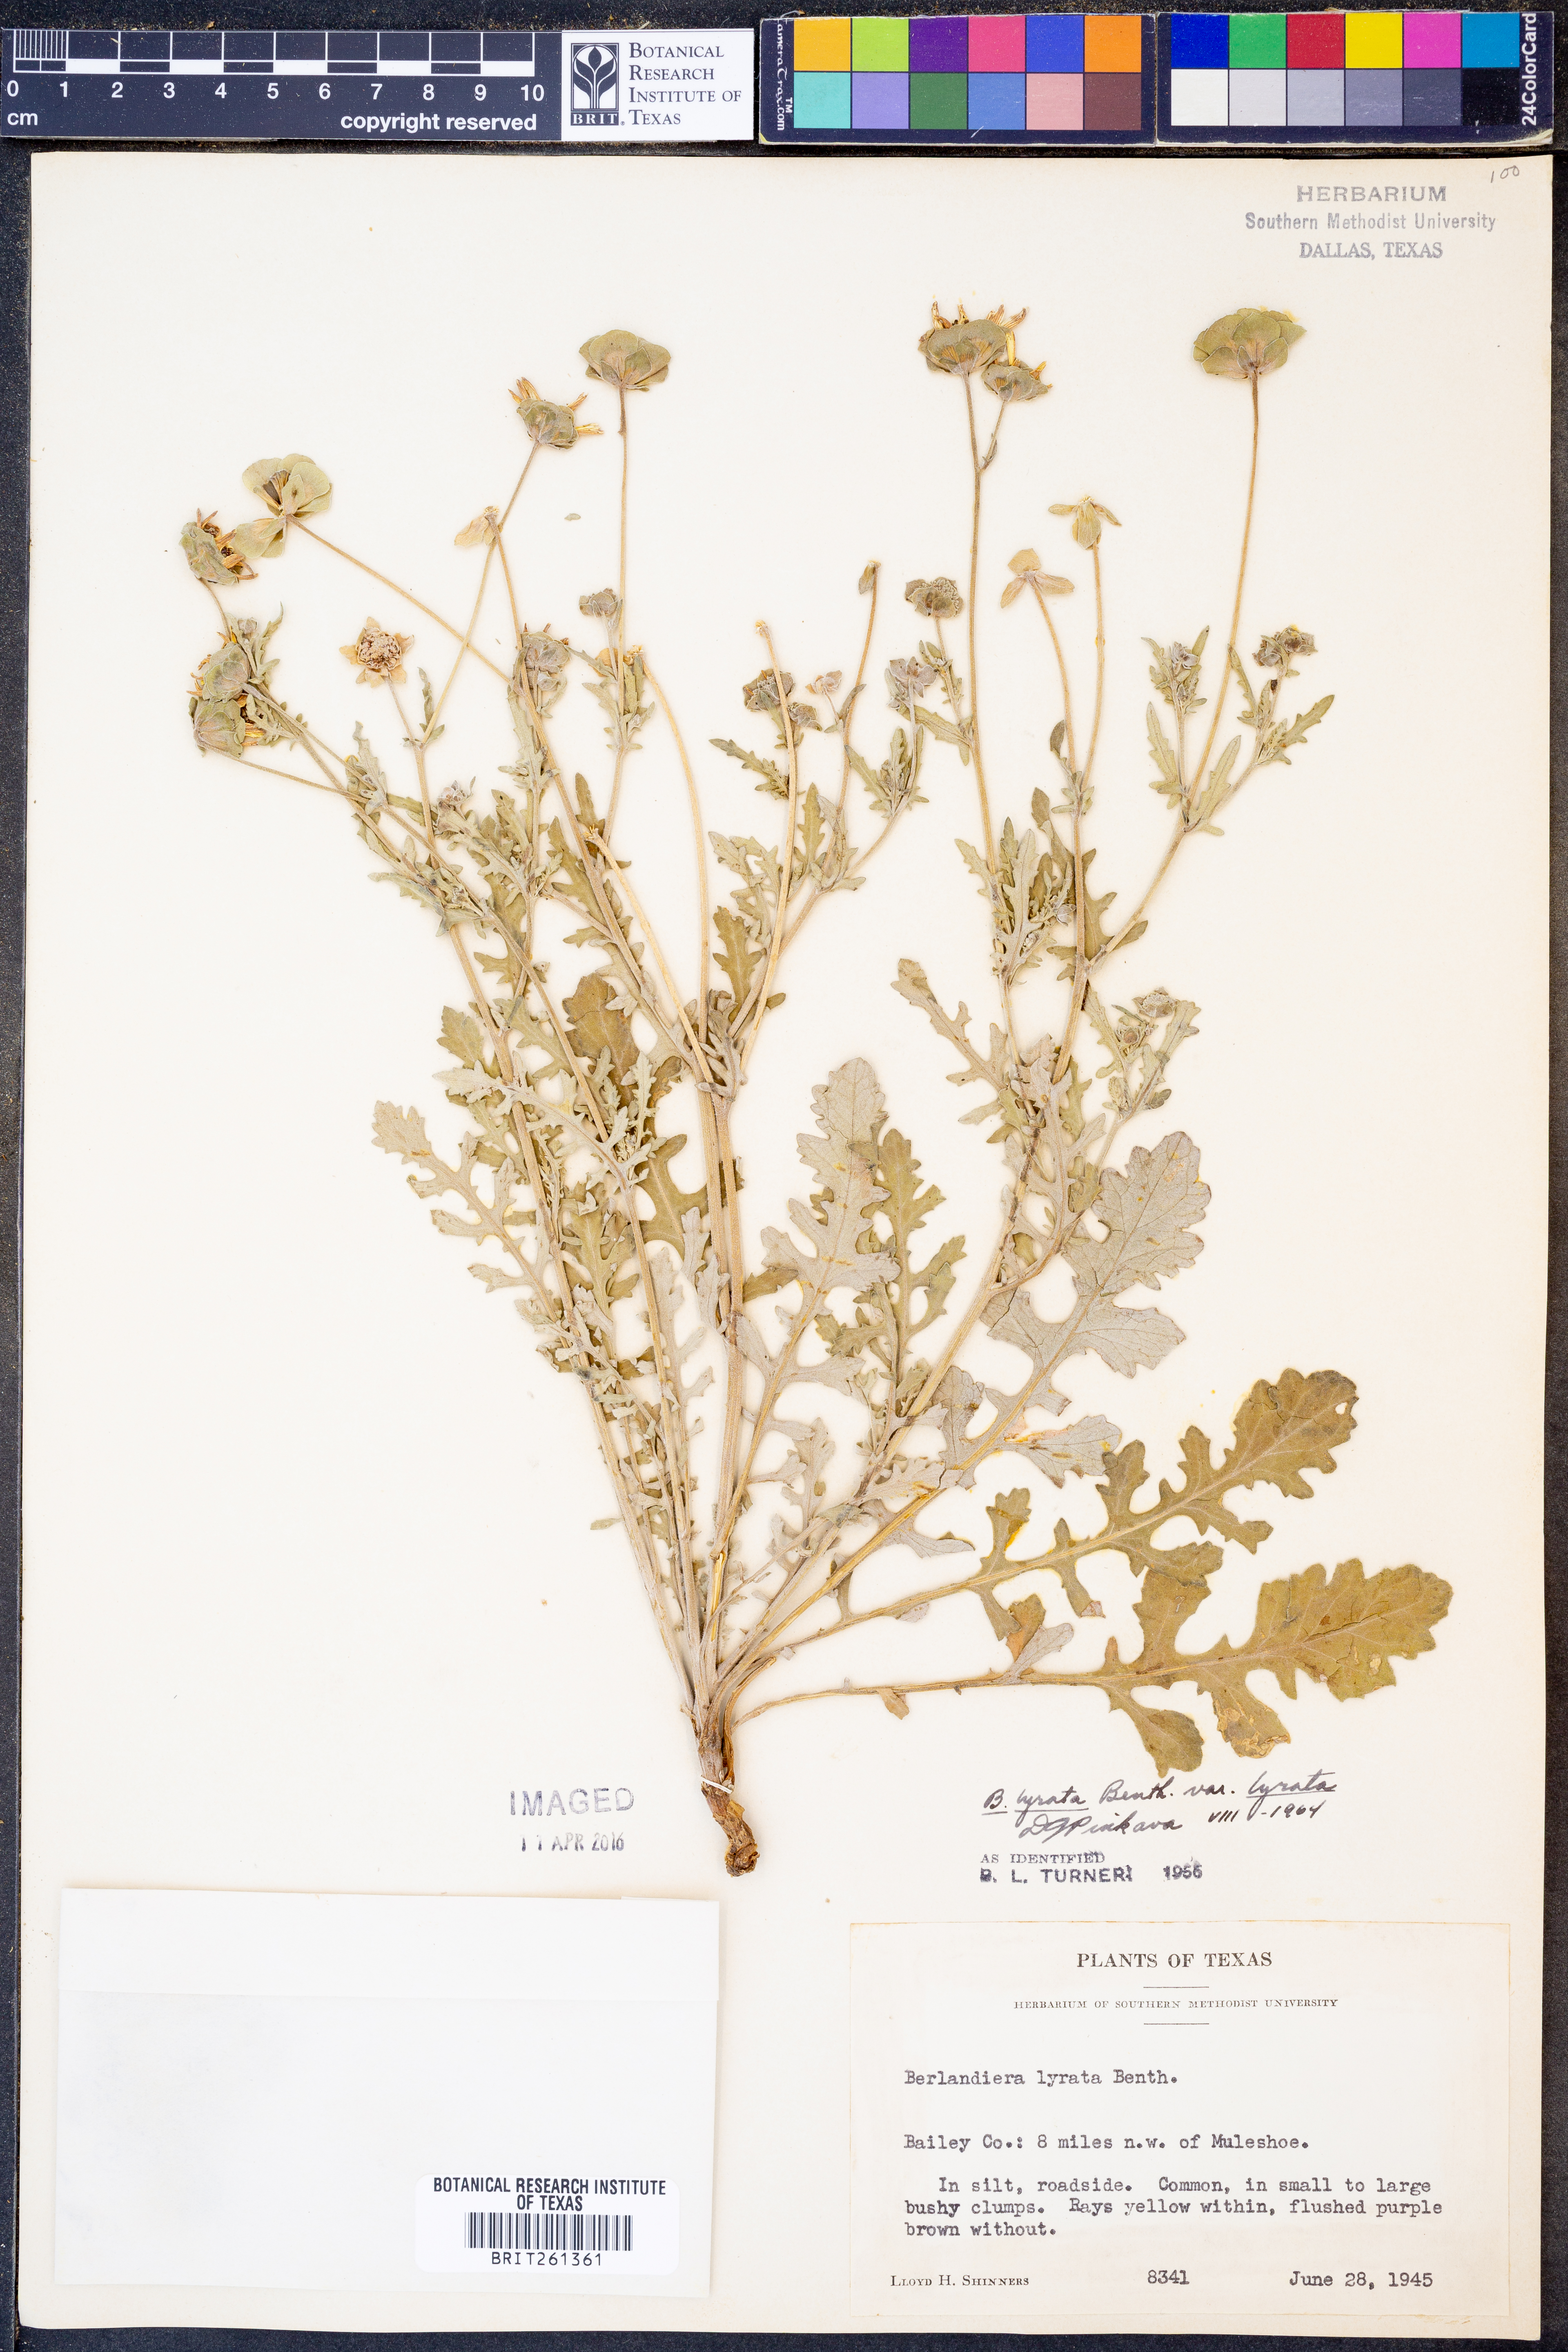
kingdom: Plantae
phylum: Tracheophyta
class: Magnoliopsida
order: Asterales
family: Asteraceae
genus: Berlandiera
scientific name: Berlandiera lyrata
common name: Chocolate-flower
